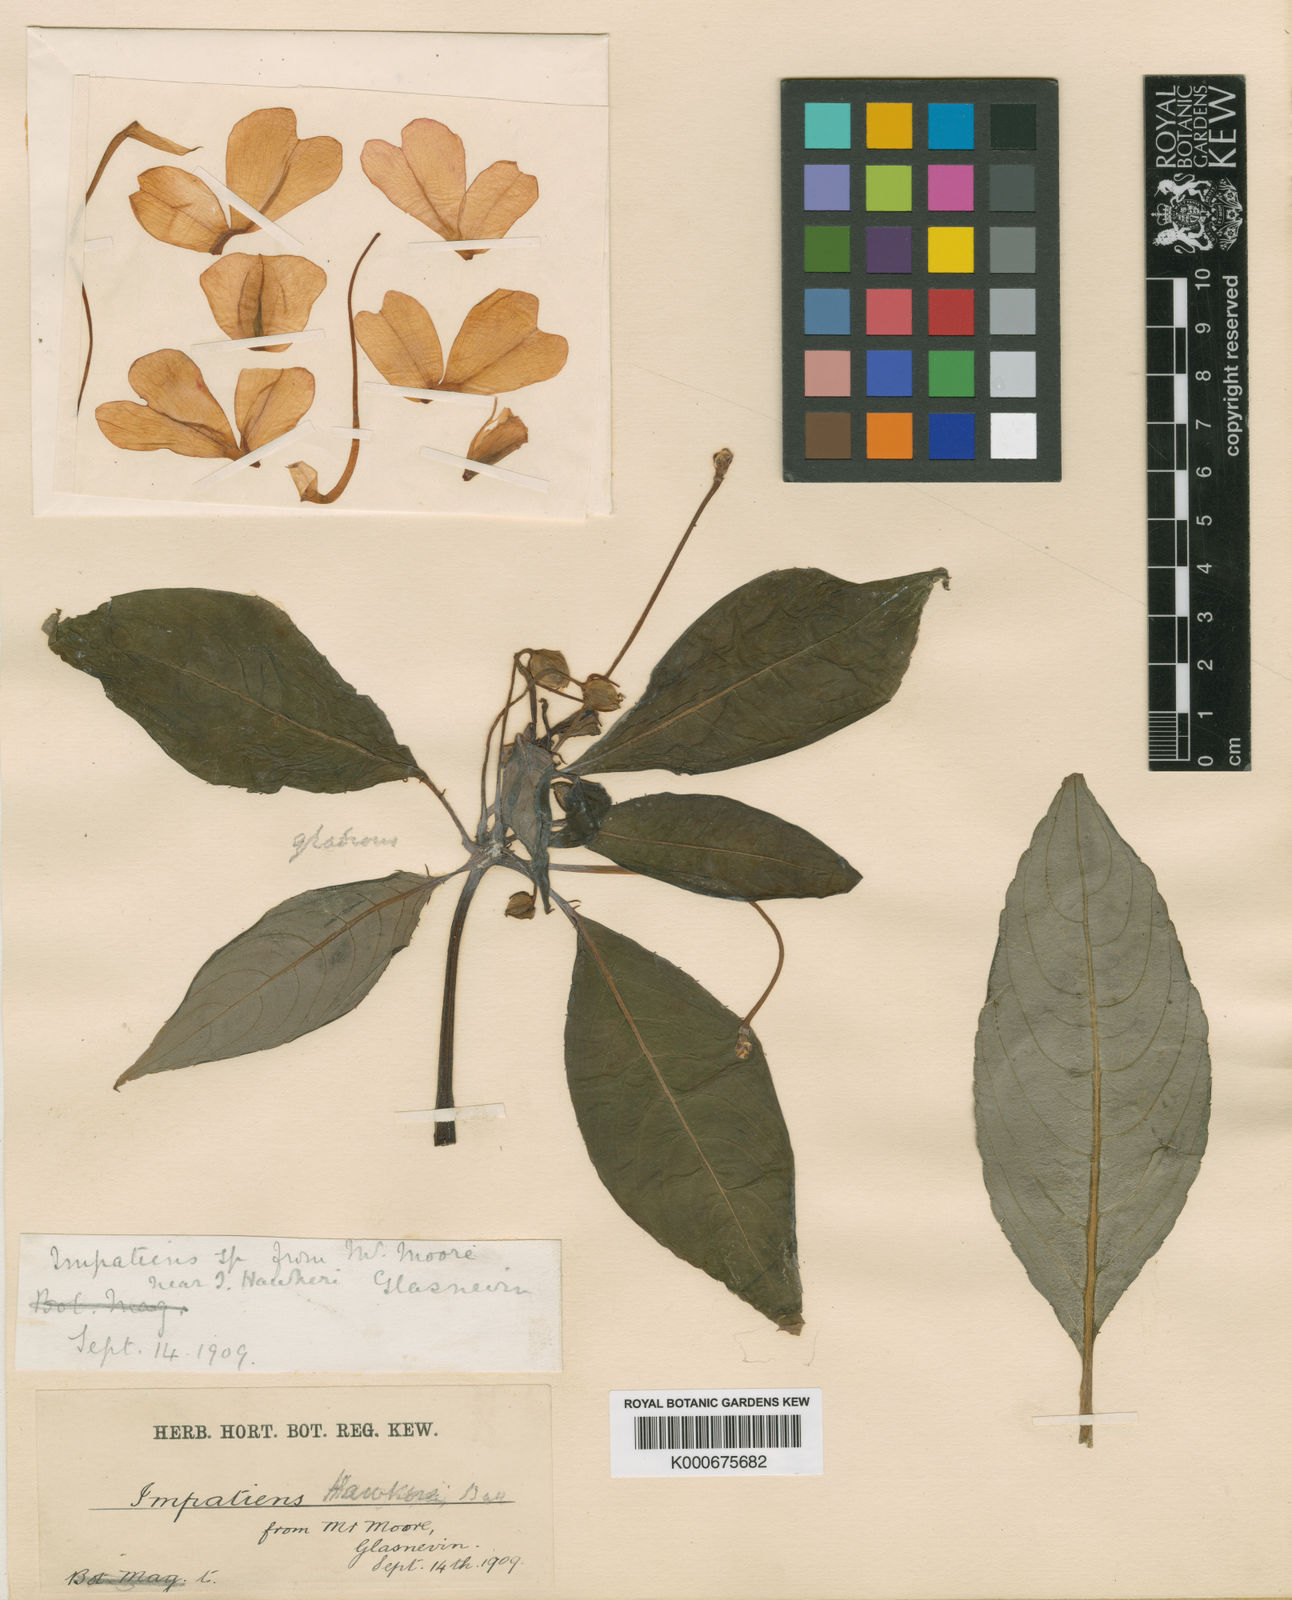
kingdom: Plantae
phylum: Tracheophyta
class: Magnoliopsida
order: Ericales
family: Balsaminaceae
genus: Impatiens
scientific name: Impatiens hawkeri
